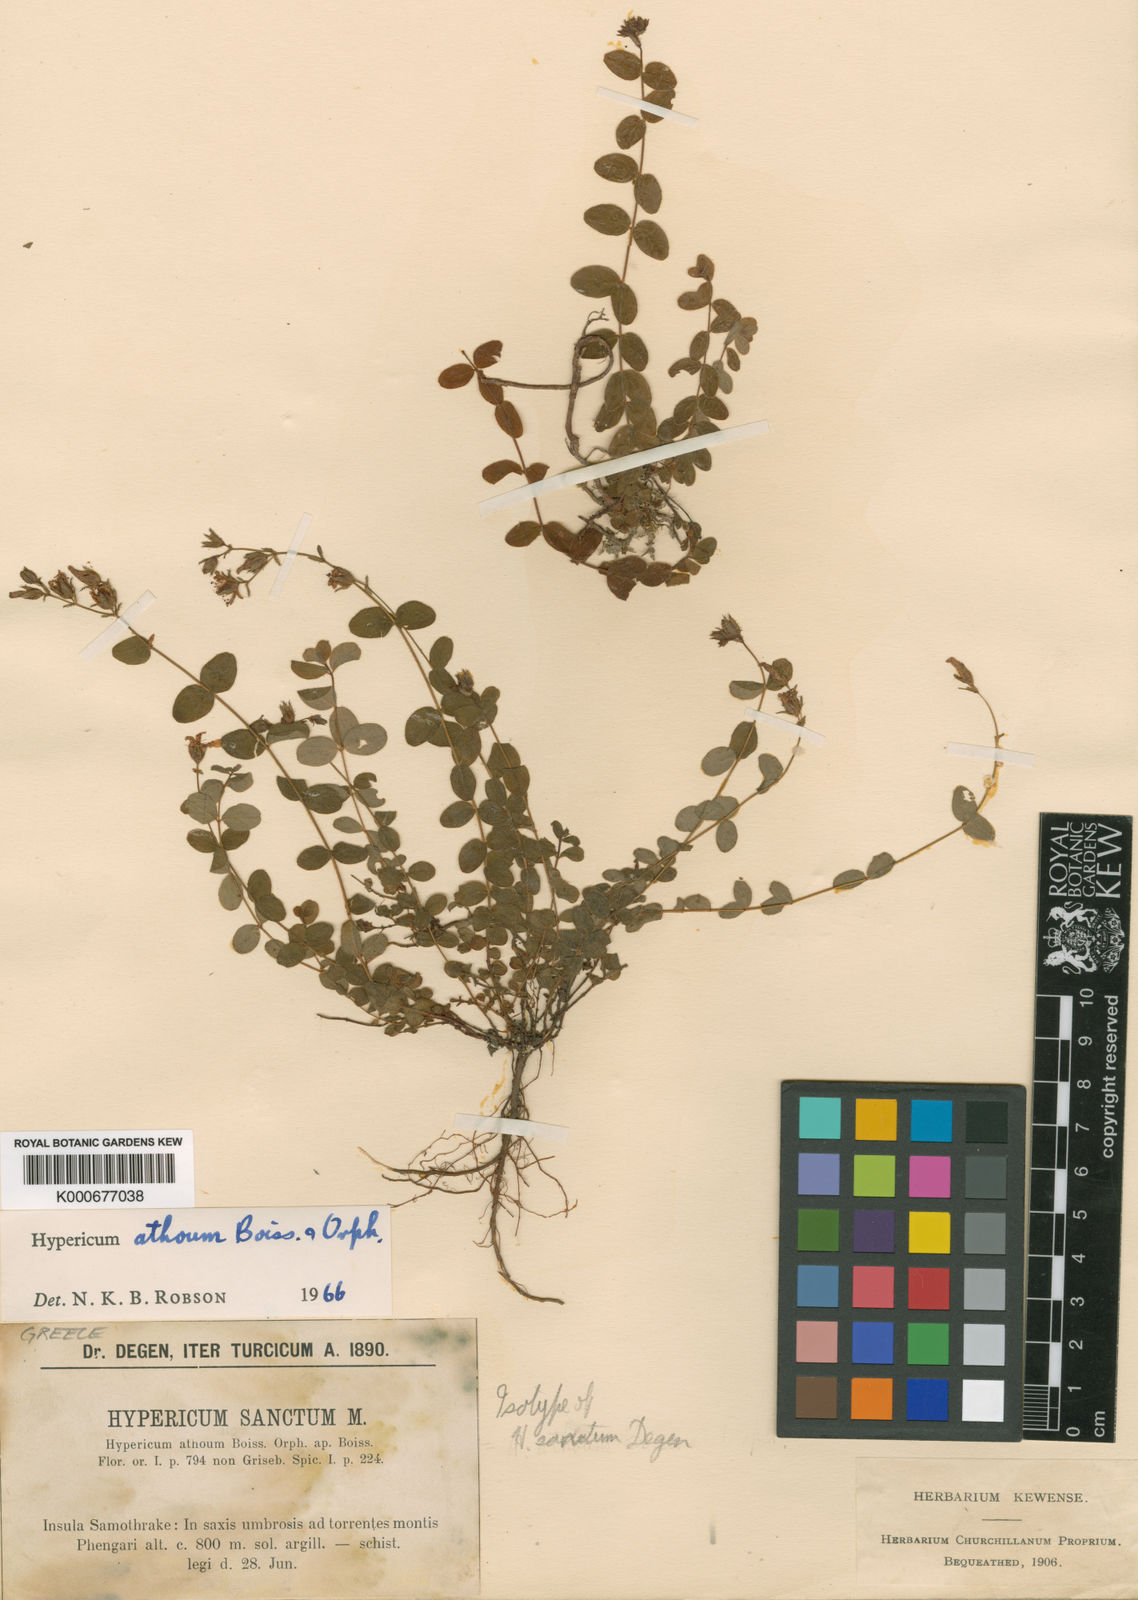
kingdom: Plantae
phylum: Tracheophyta
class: Magnoliopsida
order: Malpighiales
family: Hypericaceae
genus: Hypericum
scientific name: Hypericum athoum
